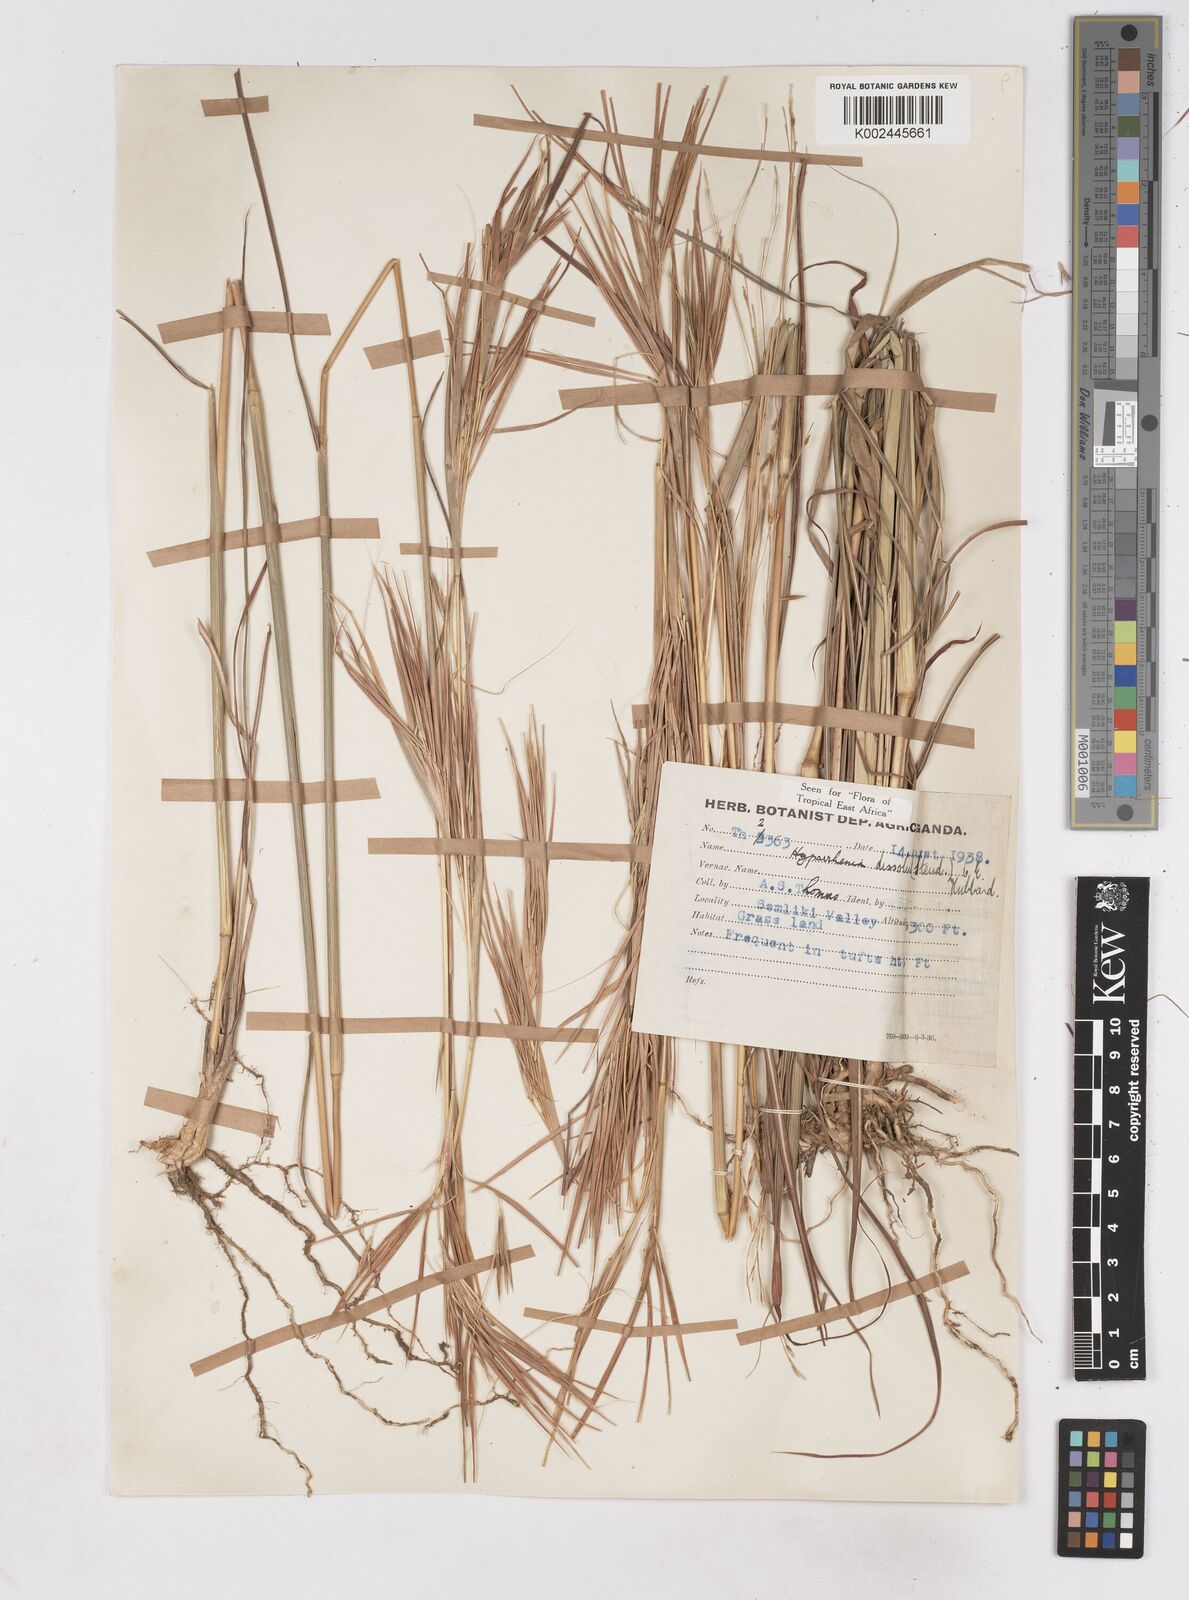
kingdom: Plantae
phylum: Tracheophyta
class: Liliopsida
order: Poales
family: Poaceae
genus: Hyperthelia
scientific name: Hyperthelia dissoluta
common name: Yellow thatching grass
